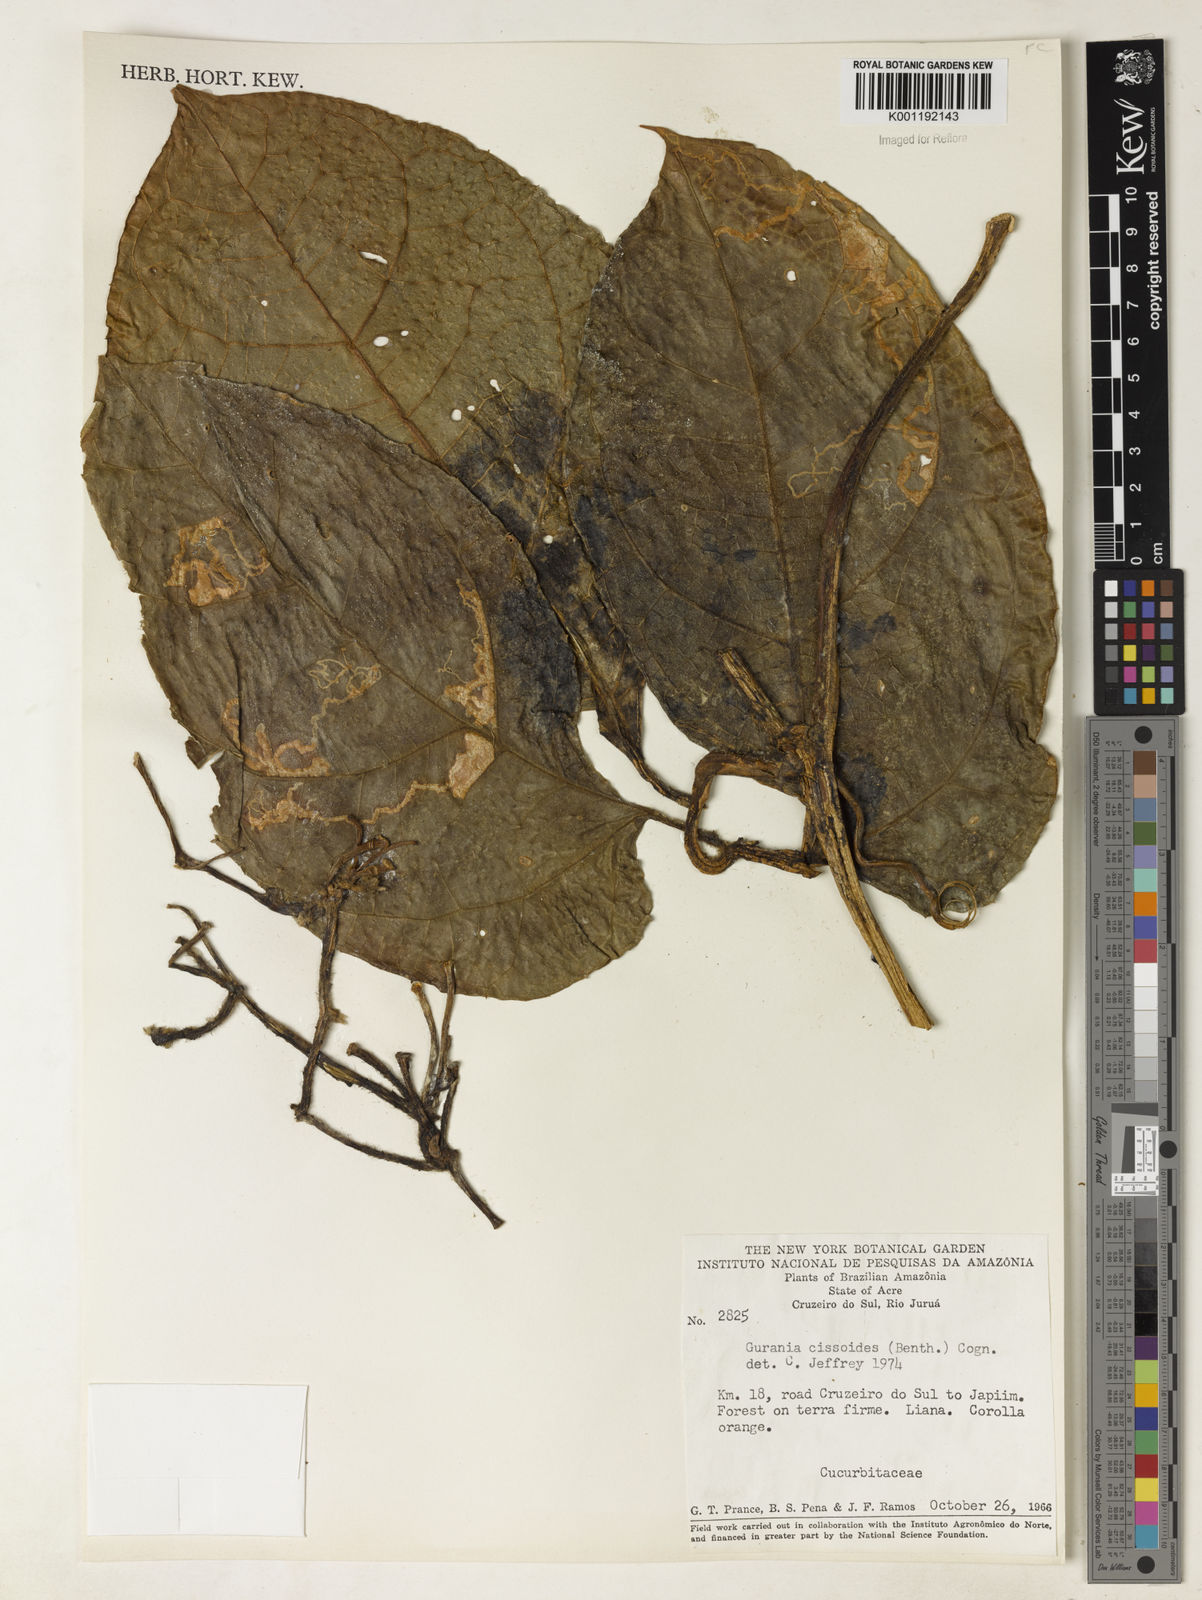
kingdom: Plantae
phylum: Tracheophyta
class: Magnoliopsida
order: Cucurbitales
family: Cucurbitaceae
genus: Gurania
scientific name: Gurania bignoniacea
